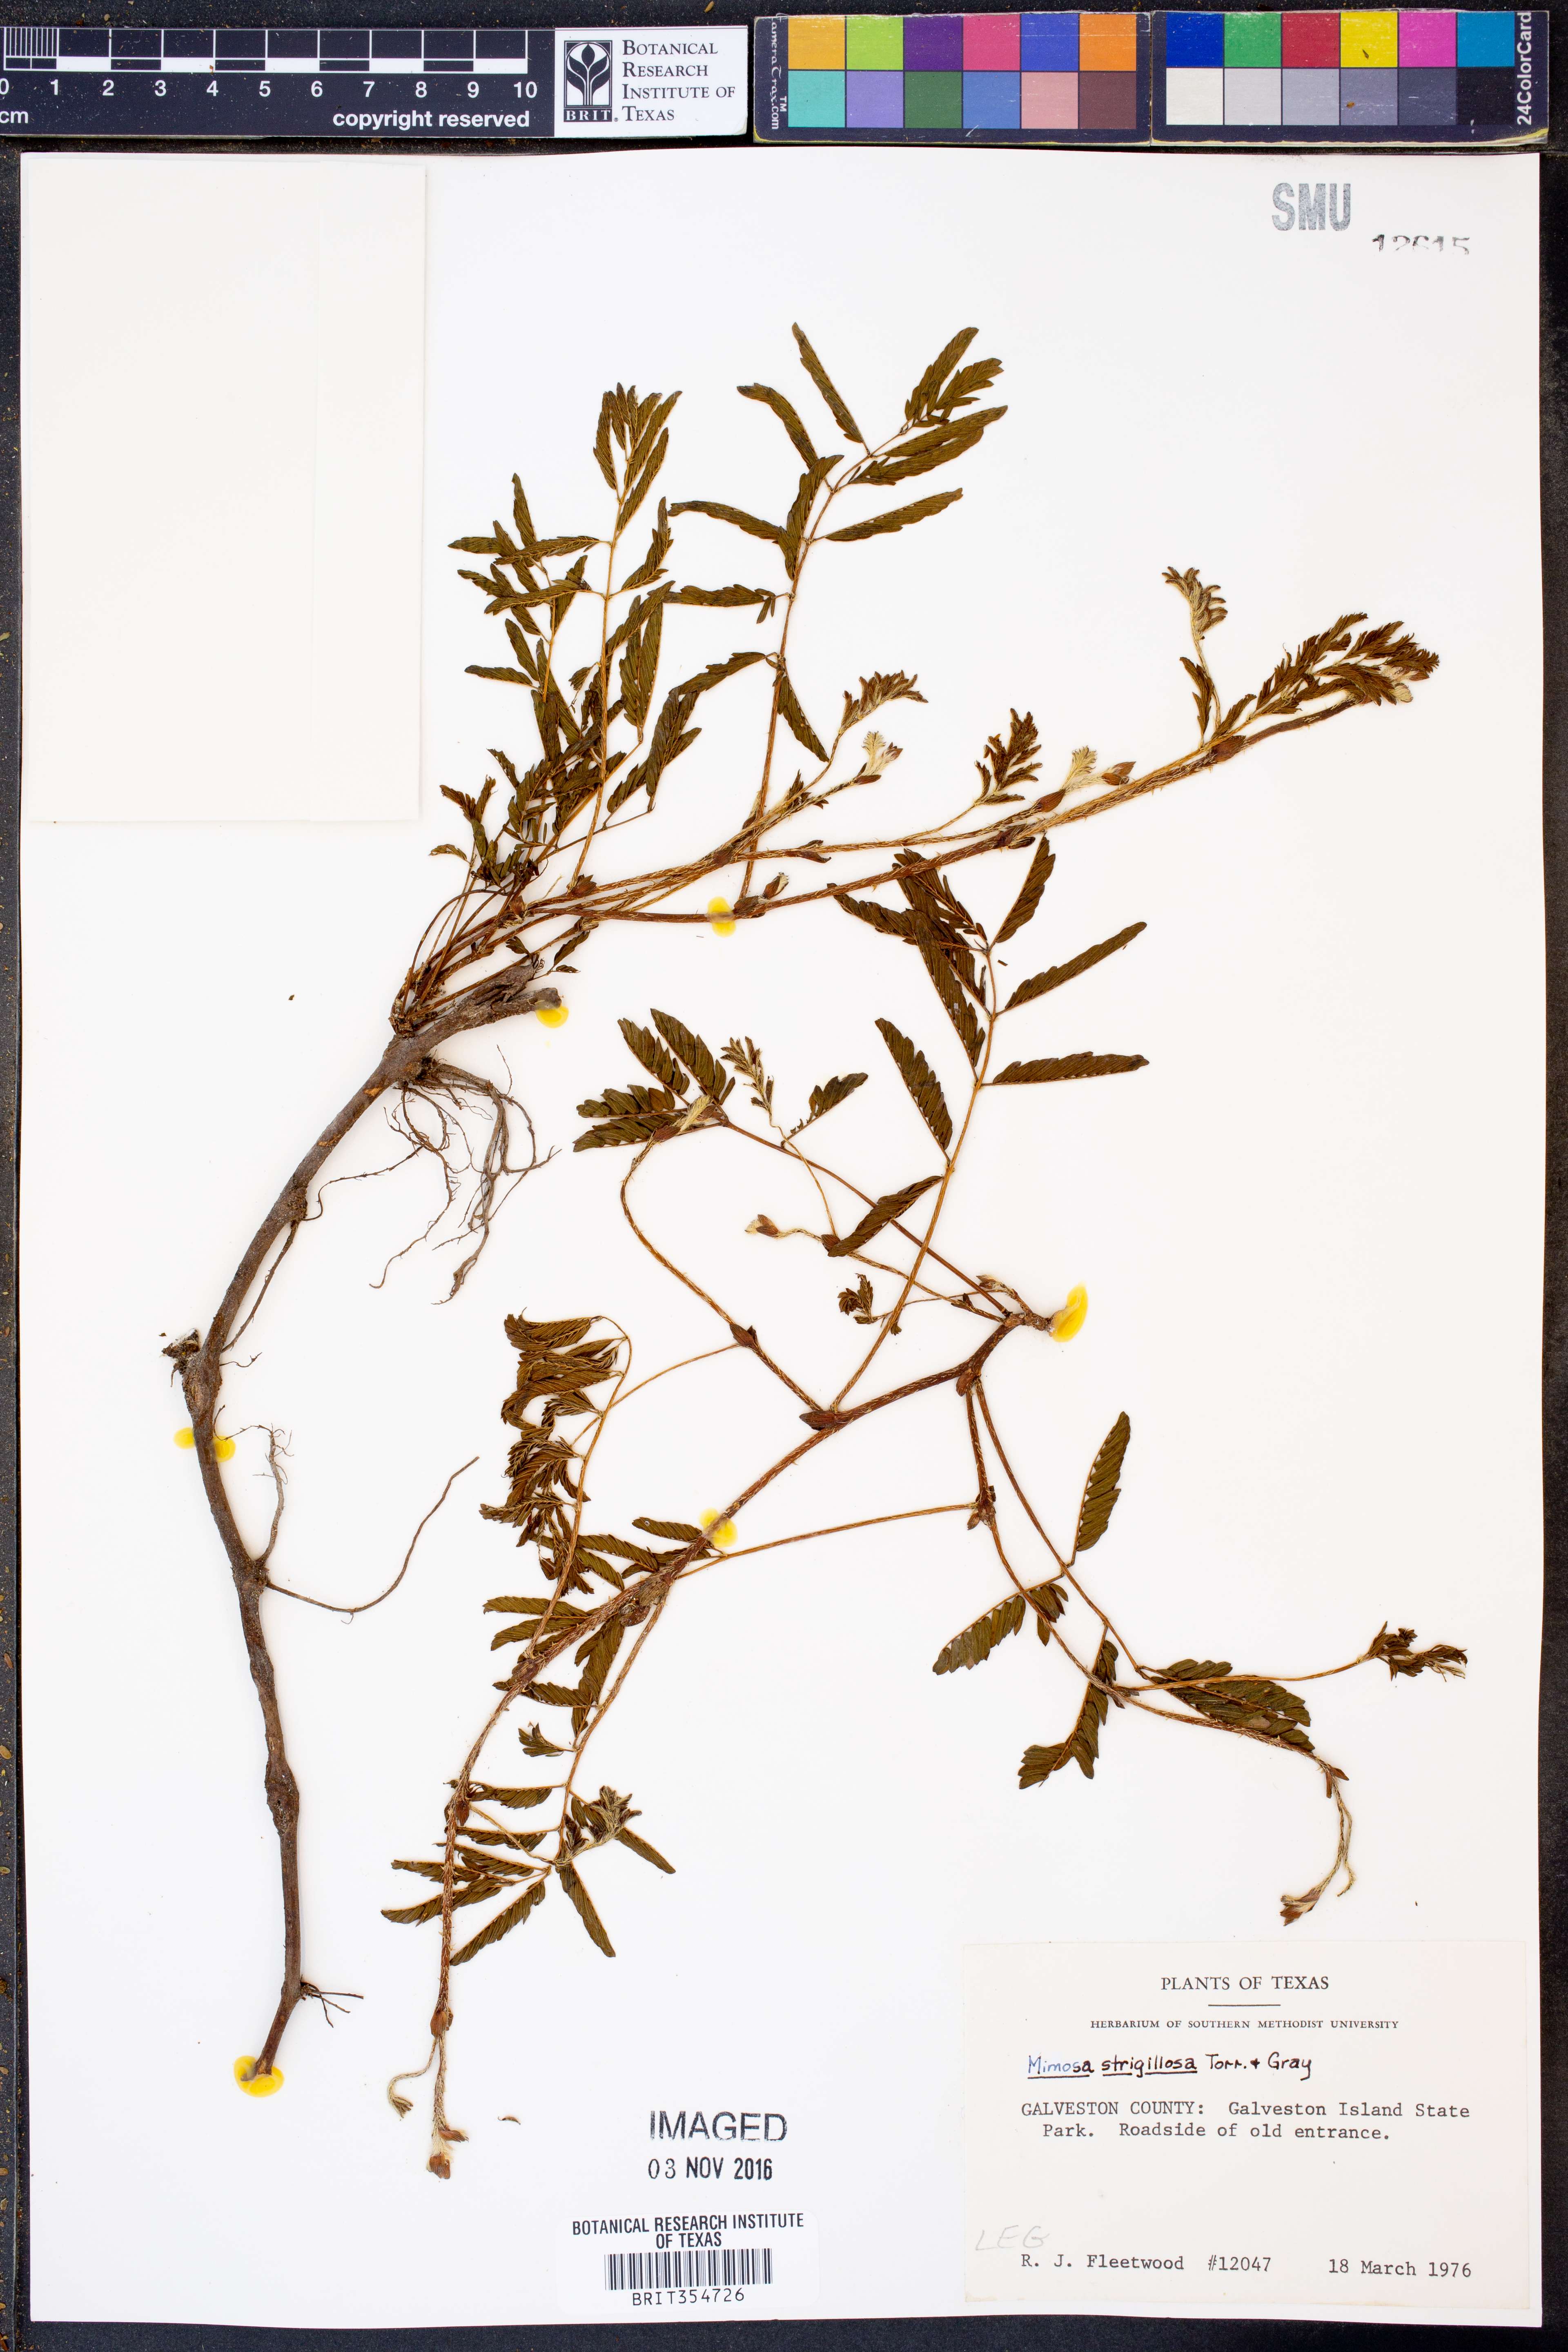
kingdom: Plantae
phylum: Tracheophyta
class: Magnoliopsida
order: Fabales
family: Fabaceae
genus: Mimosa
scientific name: Mimosa strigillosa
